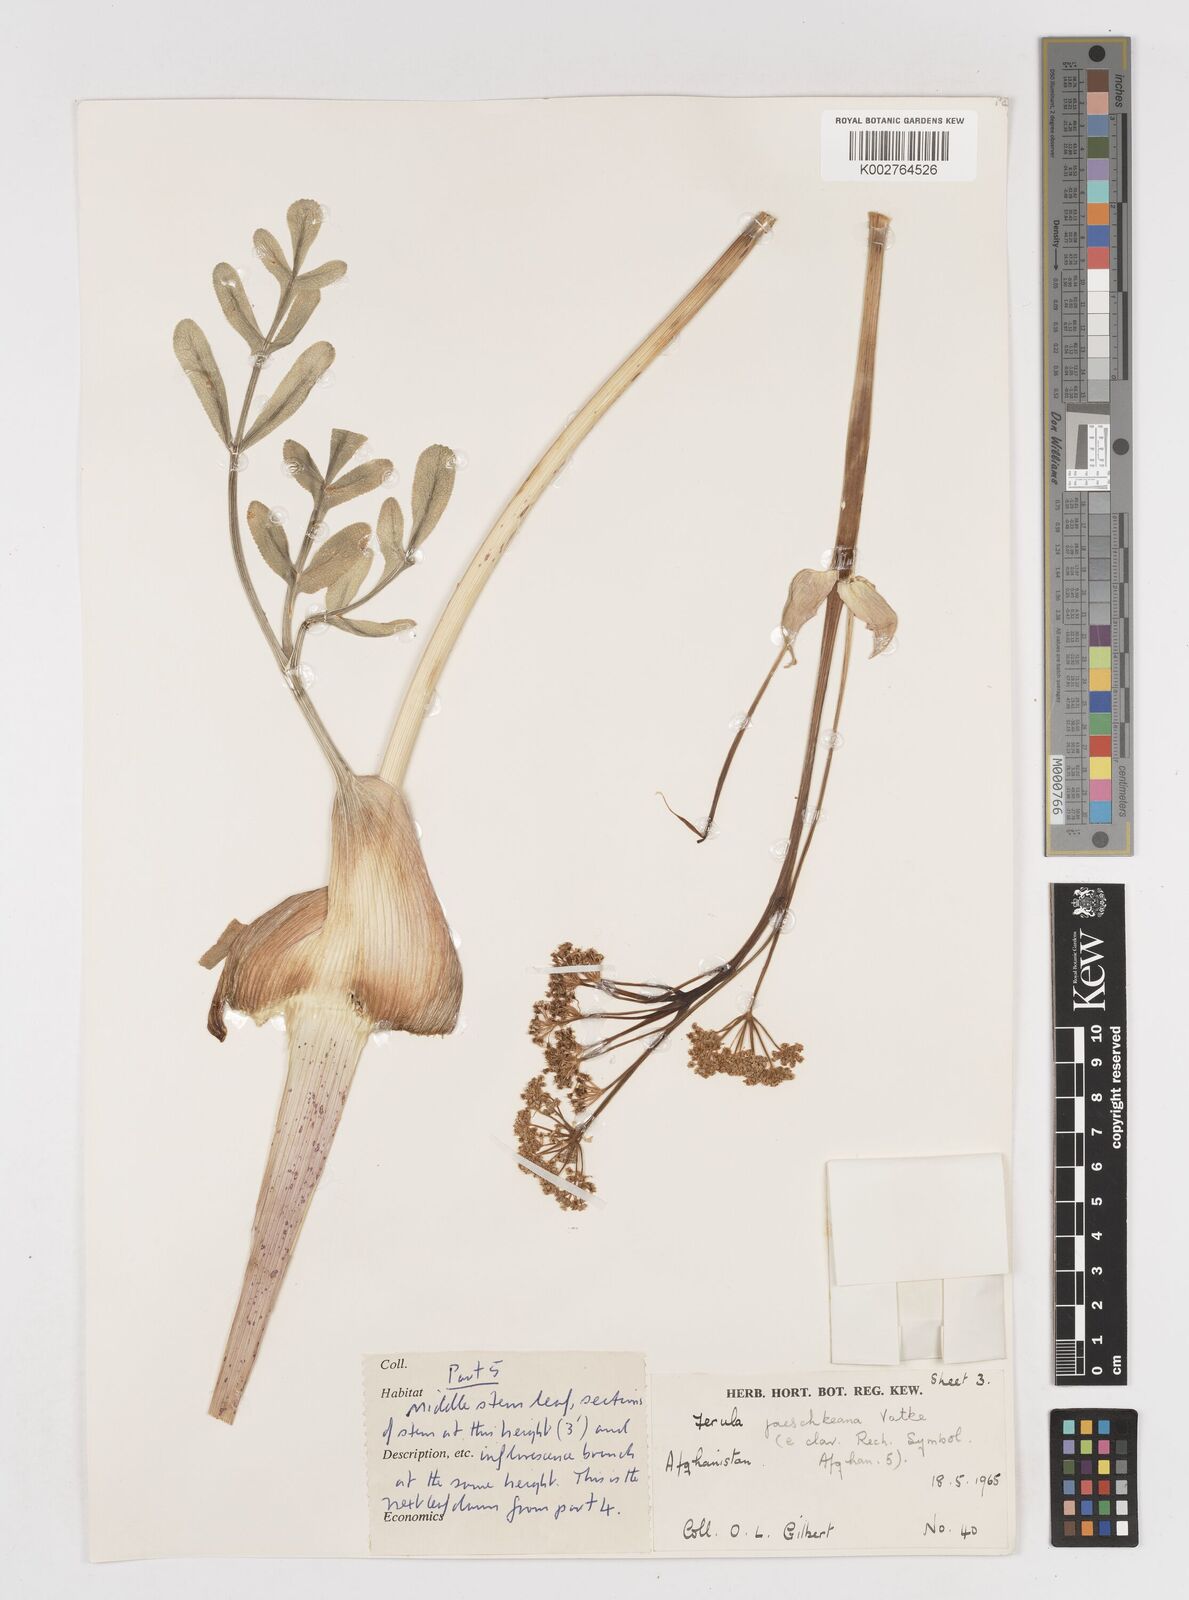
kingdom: Plantae
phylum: Tracheophyta
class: Magnoliopsida
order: Apiales
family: Apiaceae
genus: Ferula
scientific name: Ferula jaeschkeana
